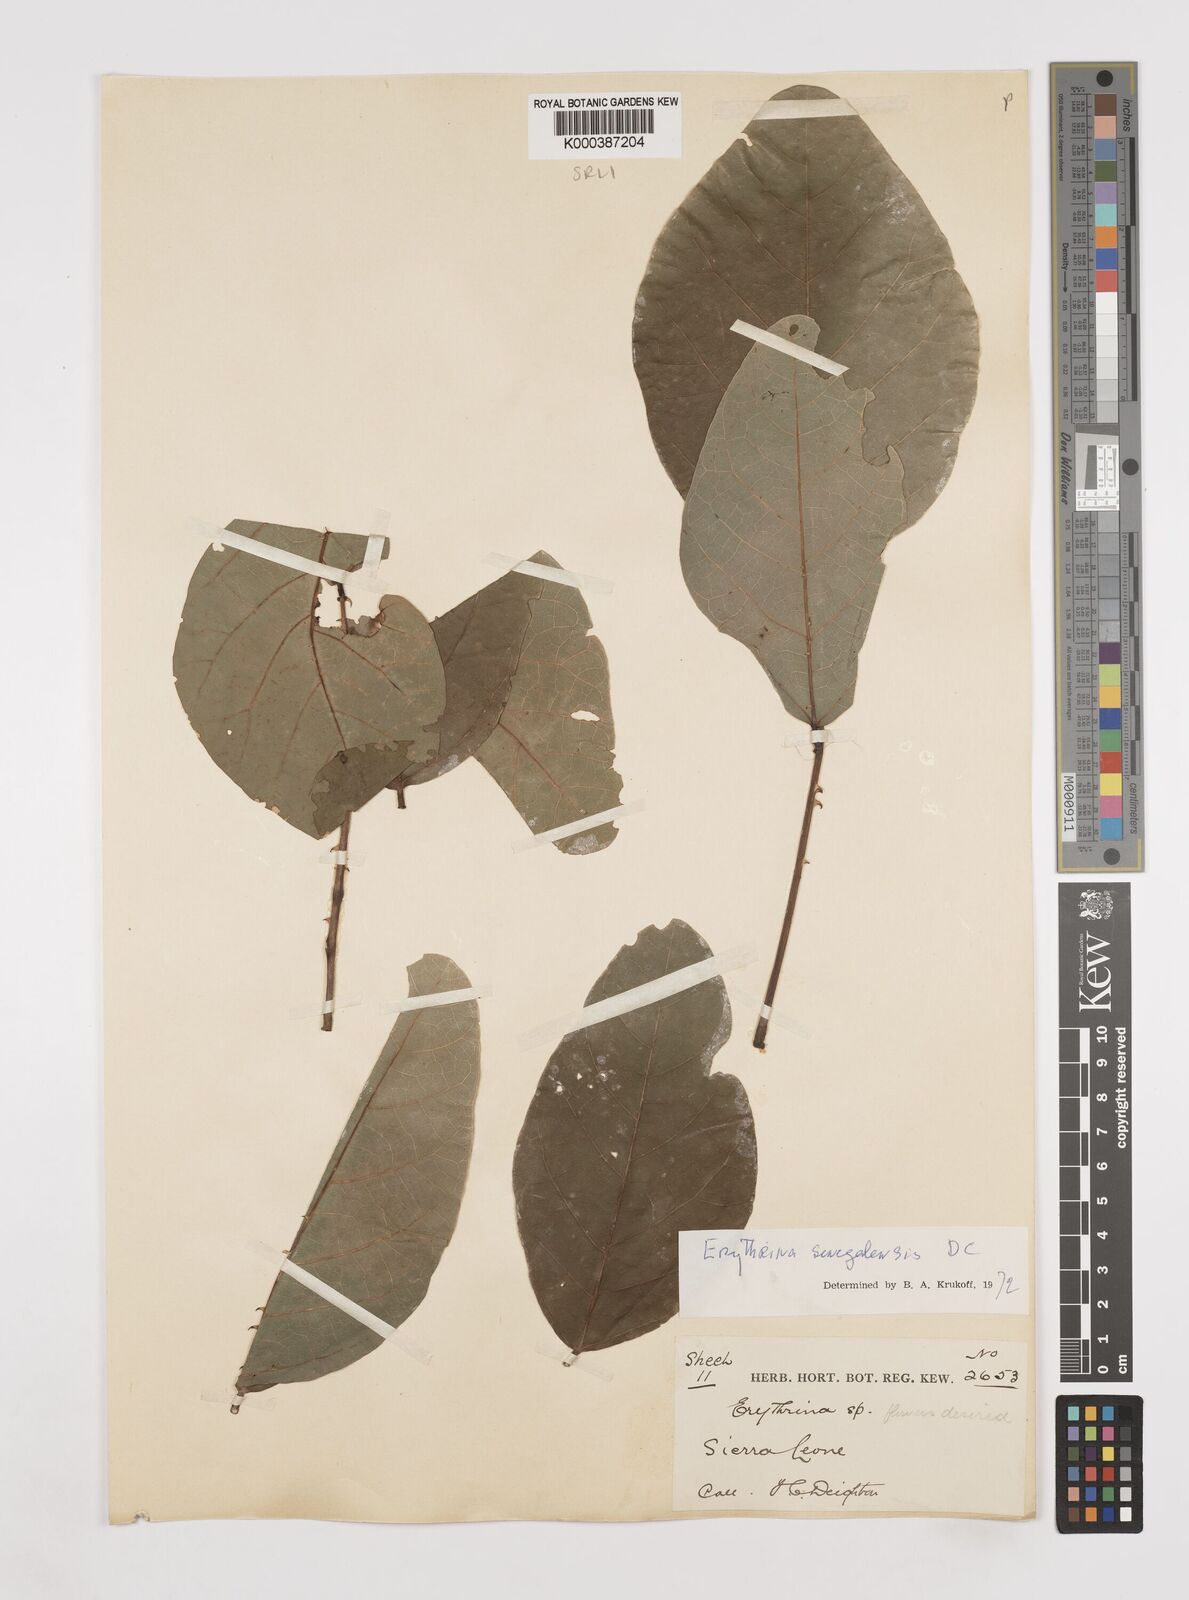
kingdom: Plantae
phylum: Tracheophyta
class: Magnoliopsida
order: Fabales
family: Fabaceae
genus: Erythrina
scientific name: Erythrina senegalensis
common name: Senegal coraltree
